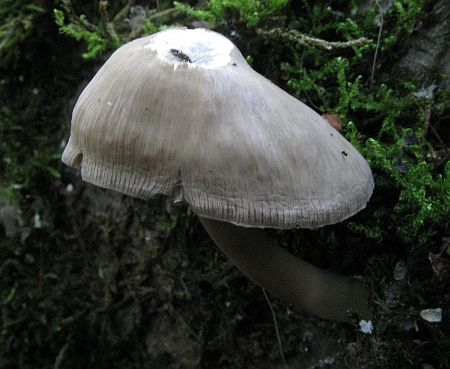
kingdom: Fungi
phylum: Basidiomycota
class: Agaricomycetes
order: Agaricales
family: Mycenaceae
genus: Mycena
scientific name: Mycena galericulata
